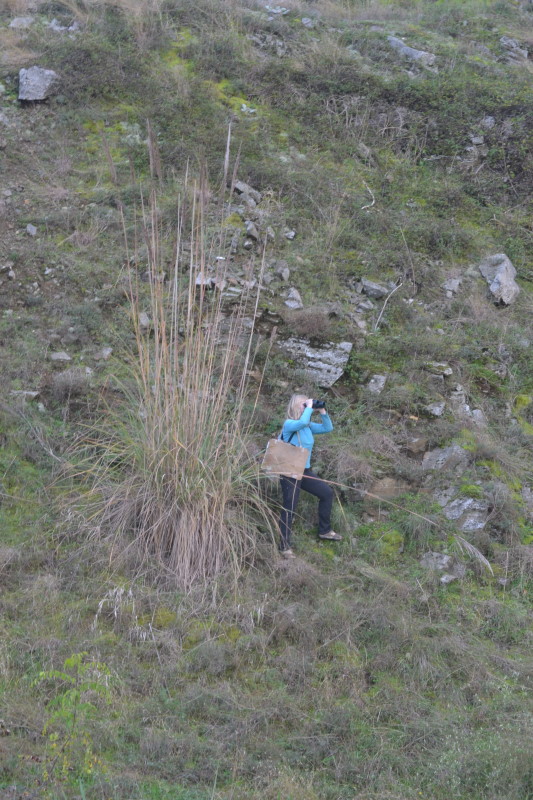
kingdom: Plantae
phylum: Tracheophyta
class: Liliopsida
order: Poales
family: Poaceae
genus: Arundo
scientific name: Arundo donax
